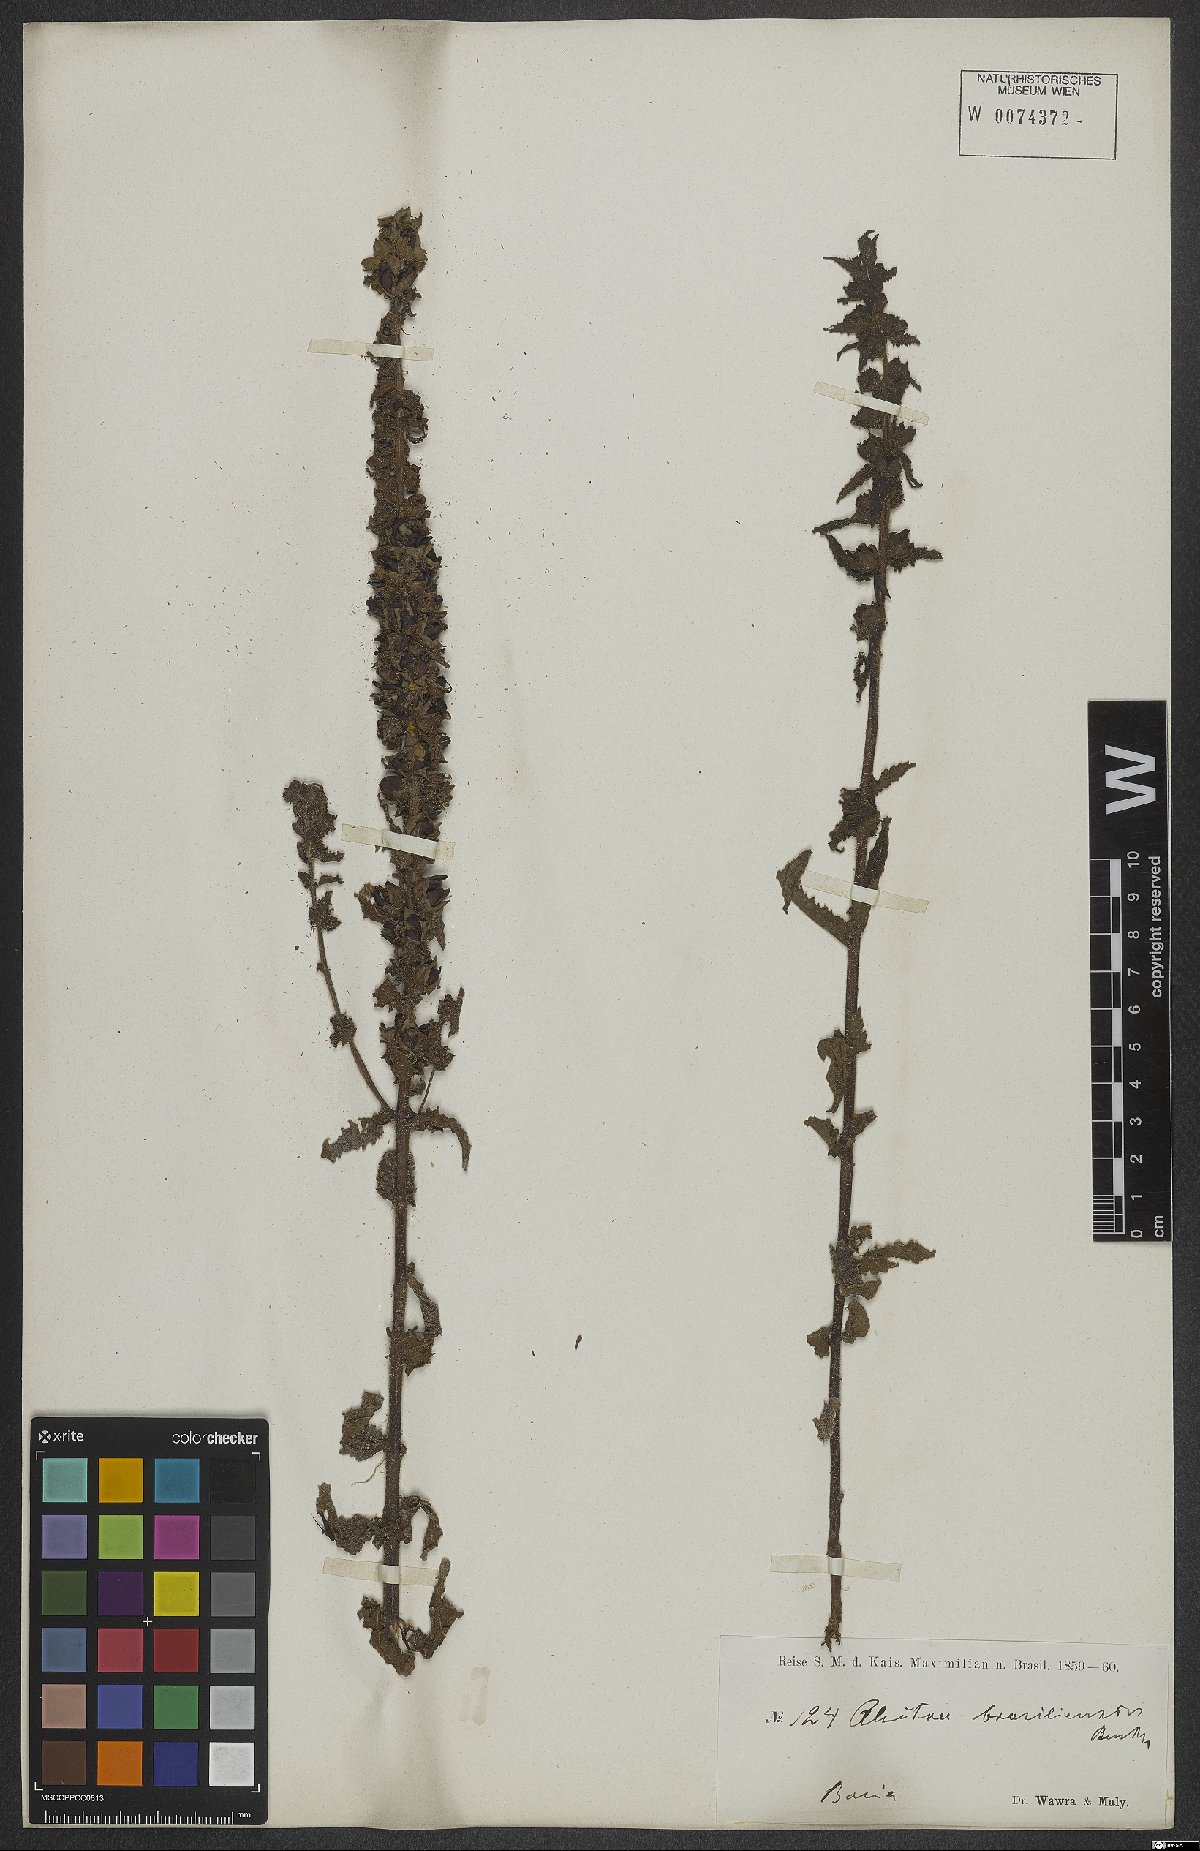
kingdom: Plantae
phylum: Tracheophyta
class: Magnoliopsida
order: Lamiales
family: Orobanchaceae
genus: Melasma
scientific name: Melasma melampyroides
